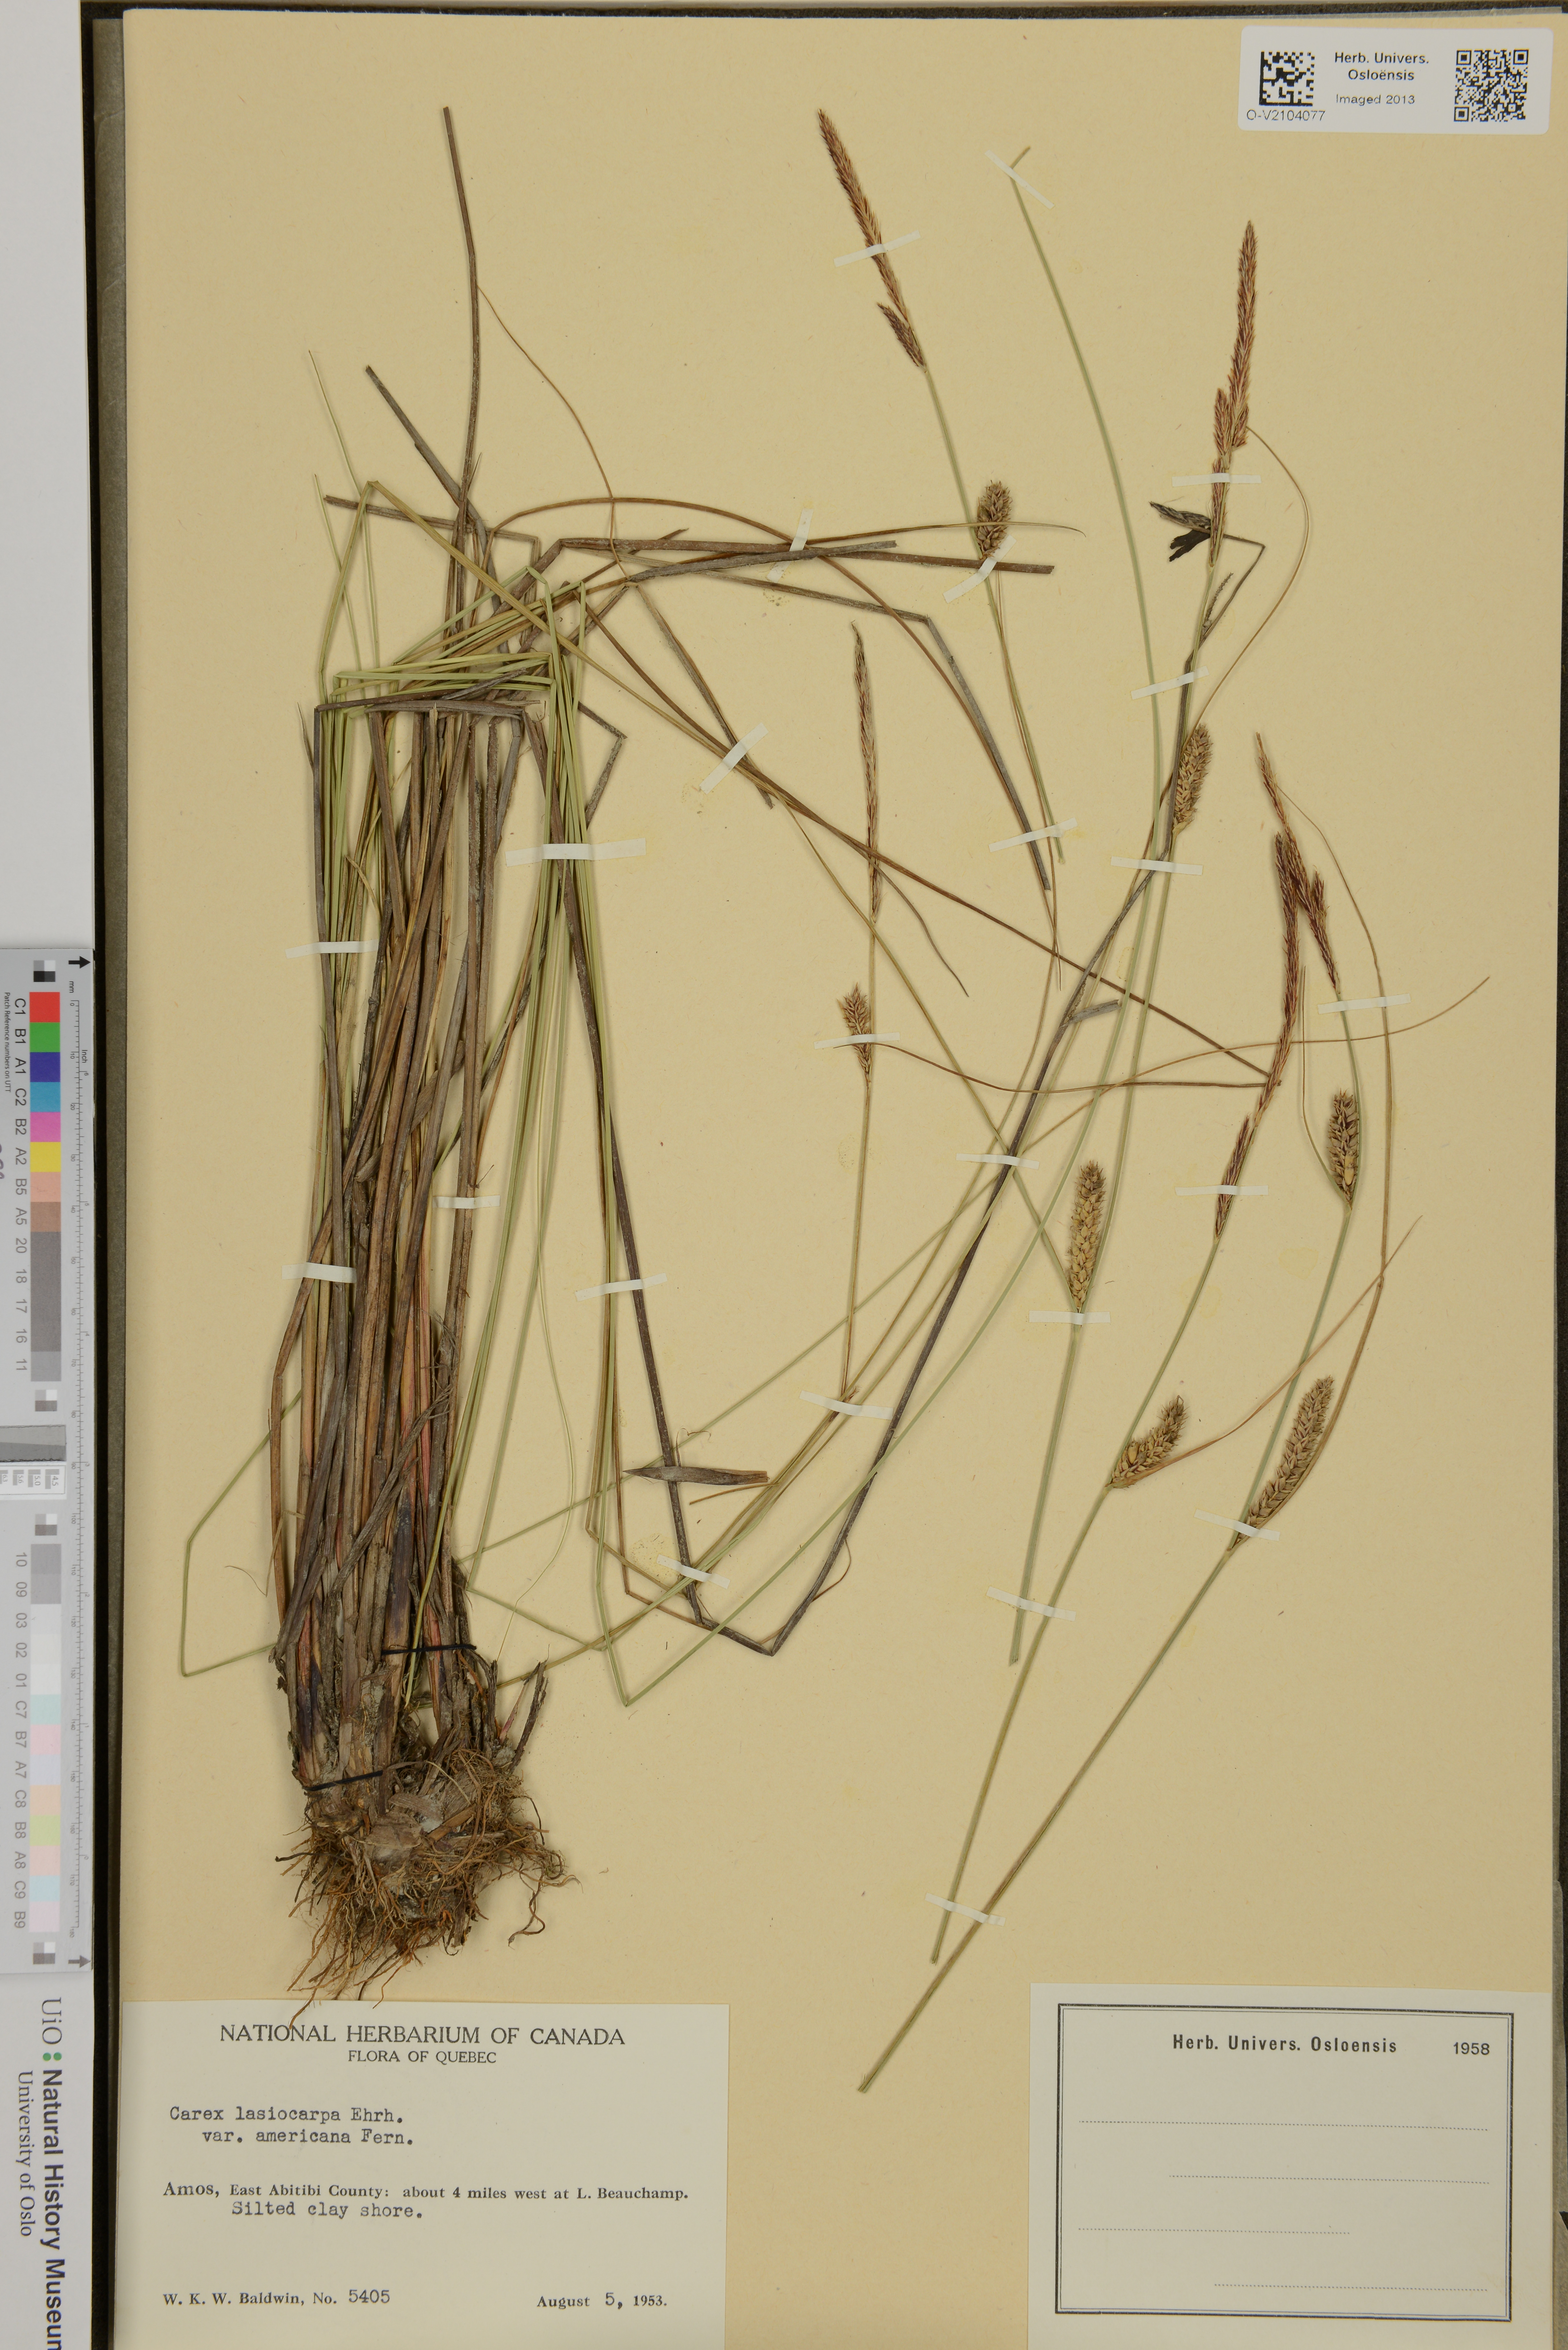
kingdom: Plantae
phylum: Tracheophyta
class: Liliopsida
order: Poales
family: Cyperaceae
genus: Carex
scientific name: Carex lasiocarpa
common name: Slender sedge
